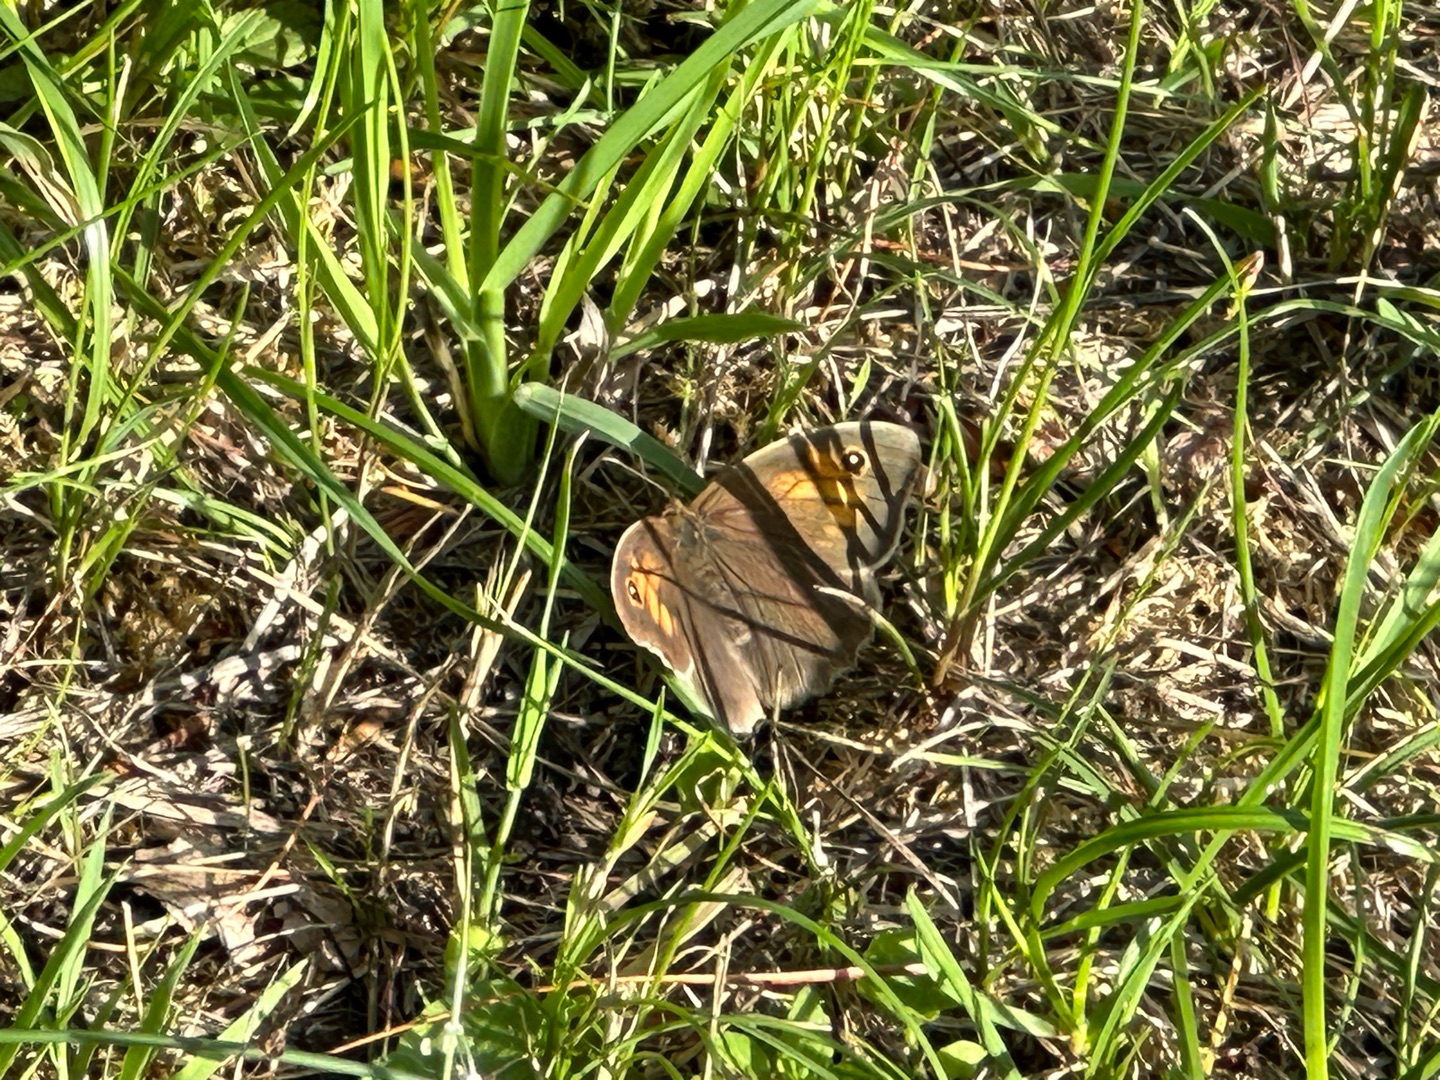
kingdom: Animalia
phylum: Arthropoda
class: Insecta
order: Lepidoptera
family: Nymphalidae
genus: Maniola
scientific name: Maniola jurtina
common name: Græsrandøje
